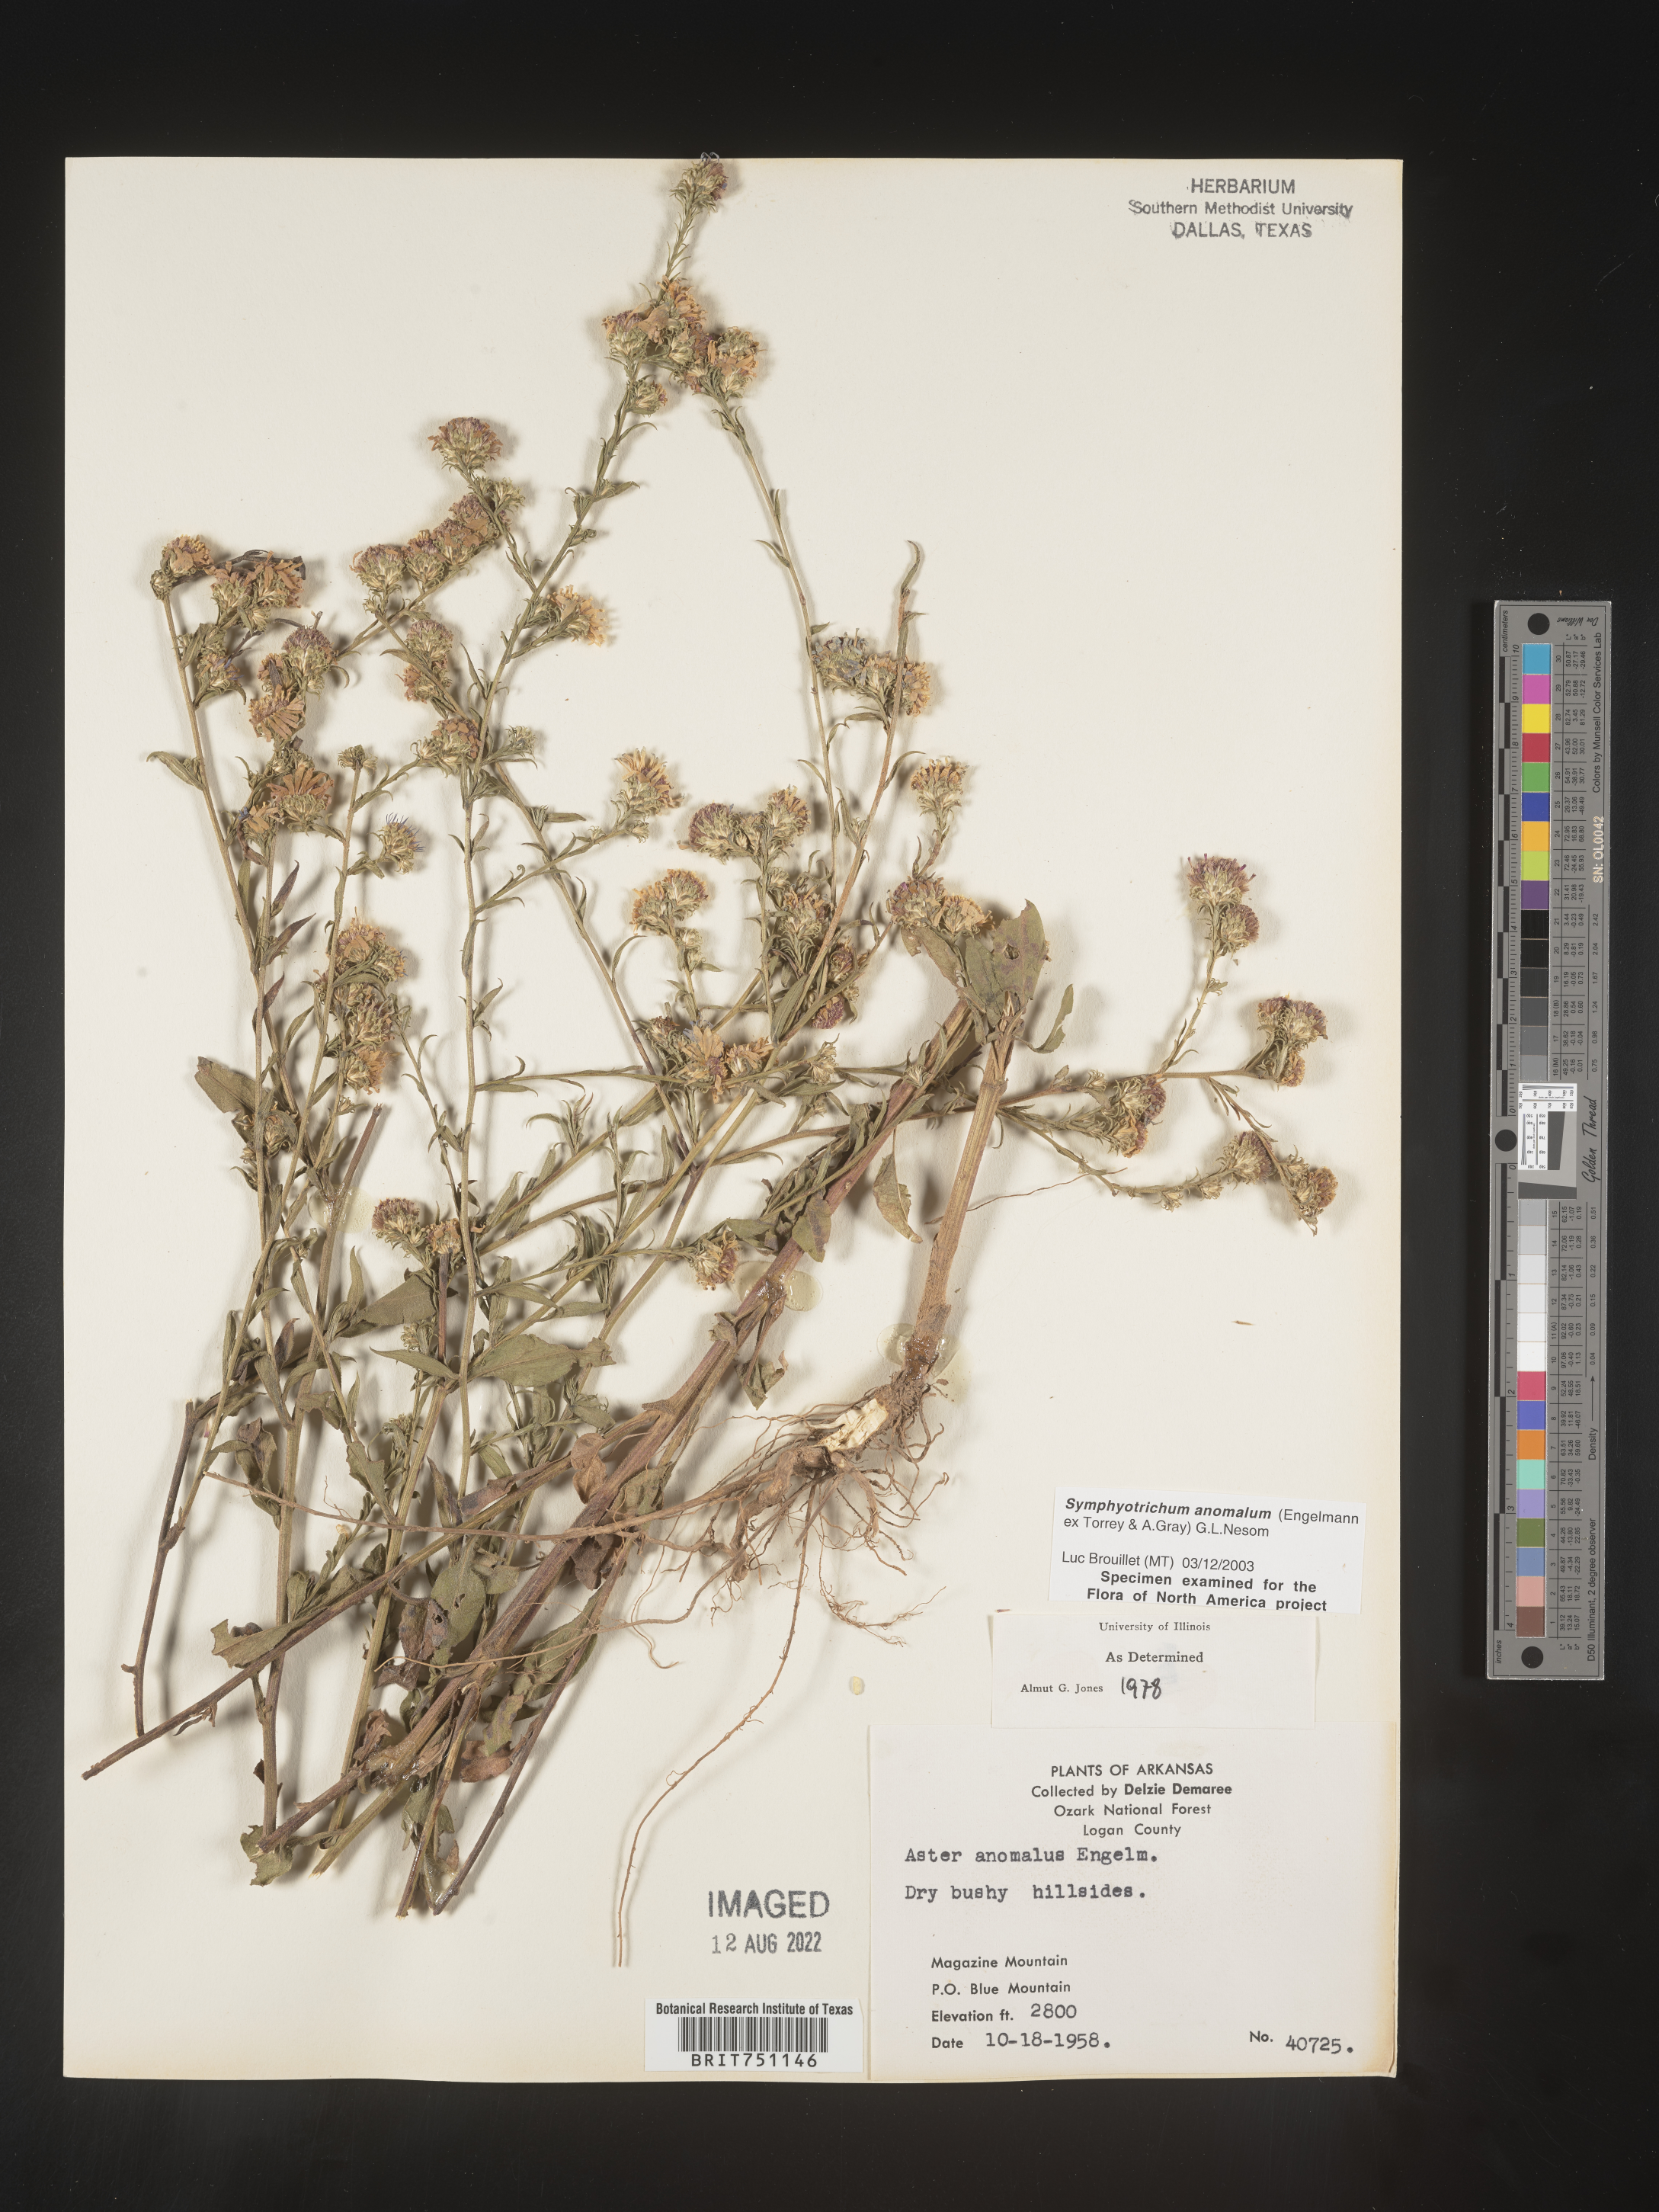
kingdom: Plantae
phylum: Tracheophyta
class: Magnoliopsida
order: Asterales
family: Asteraceae
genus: Symphyotrichum
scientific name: Symphyotrichum anomalum
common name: Many-ray aster
